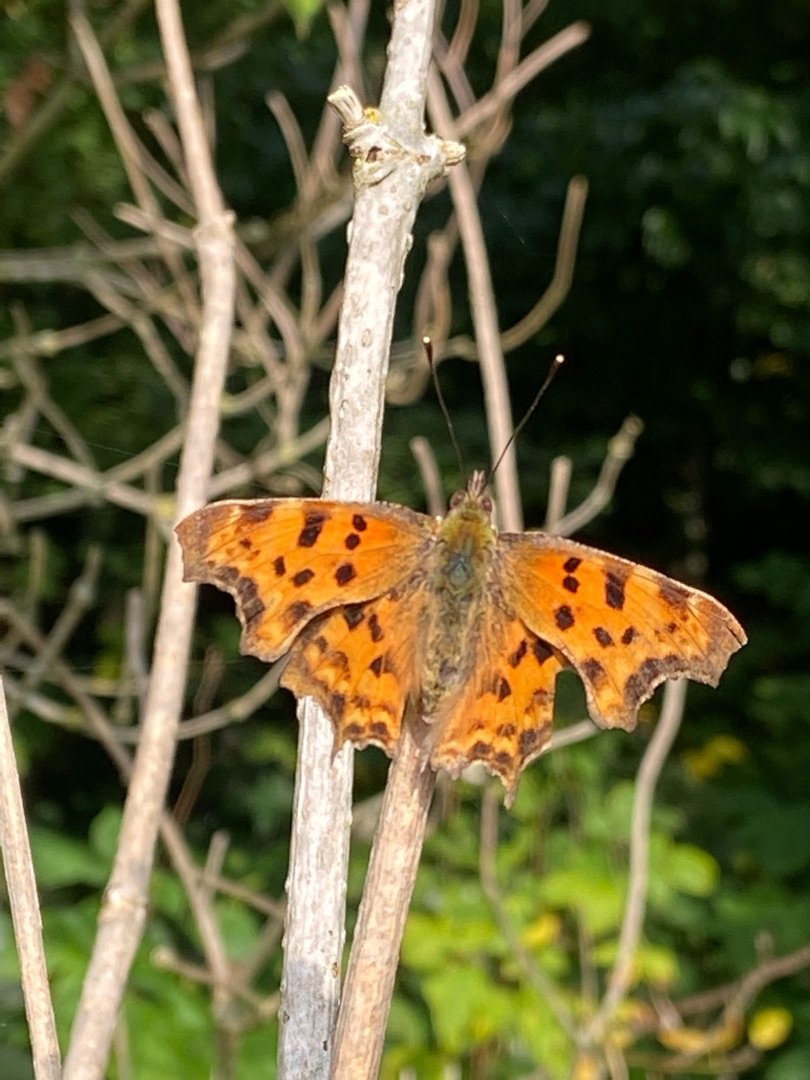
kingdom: Animalia
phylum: Arthropoda
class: Insecta
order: Lepidoptera
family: Nymphalidae
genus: Polygonia
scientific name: Polygonia c-album
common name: Det hvide C
